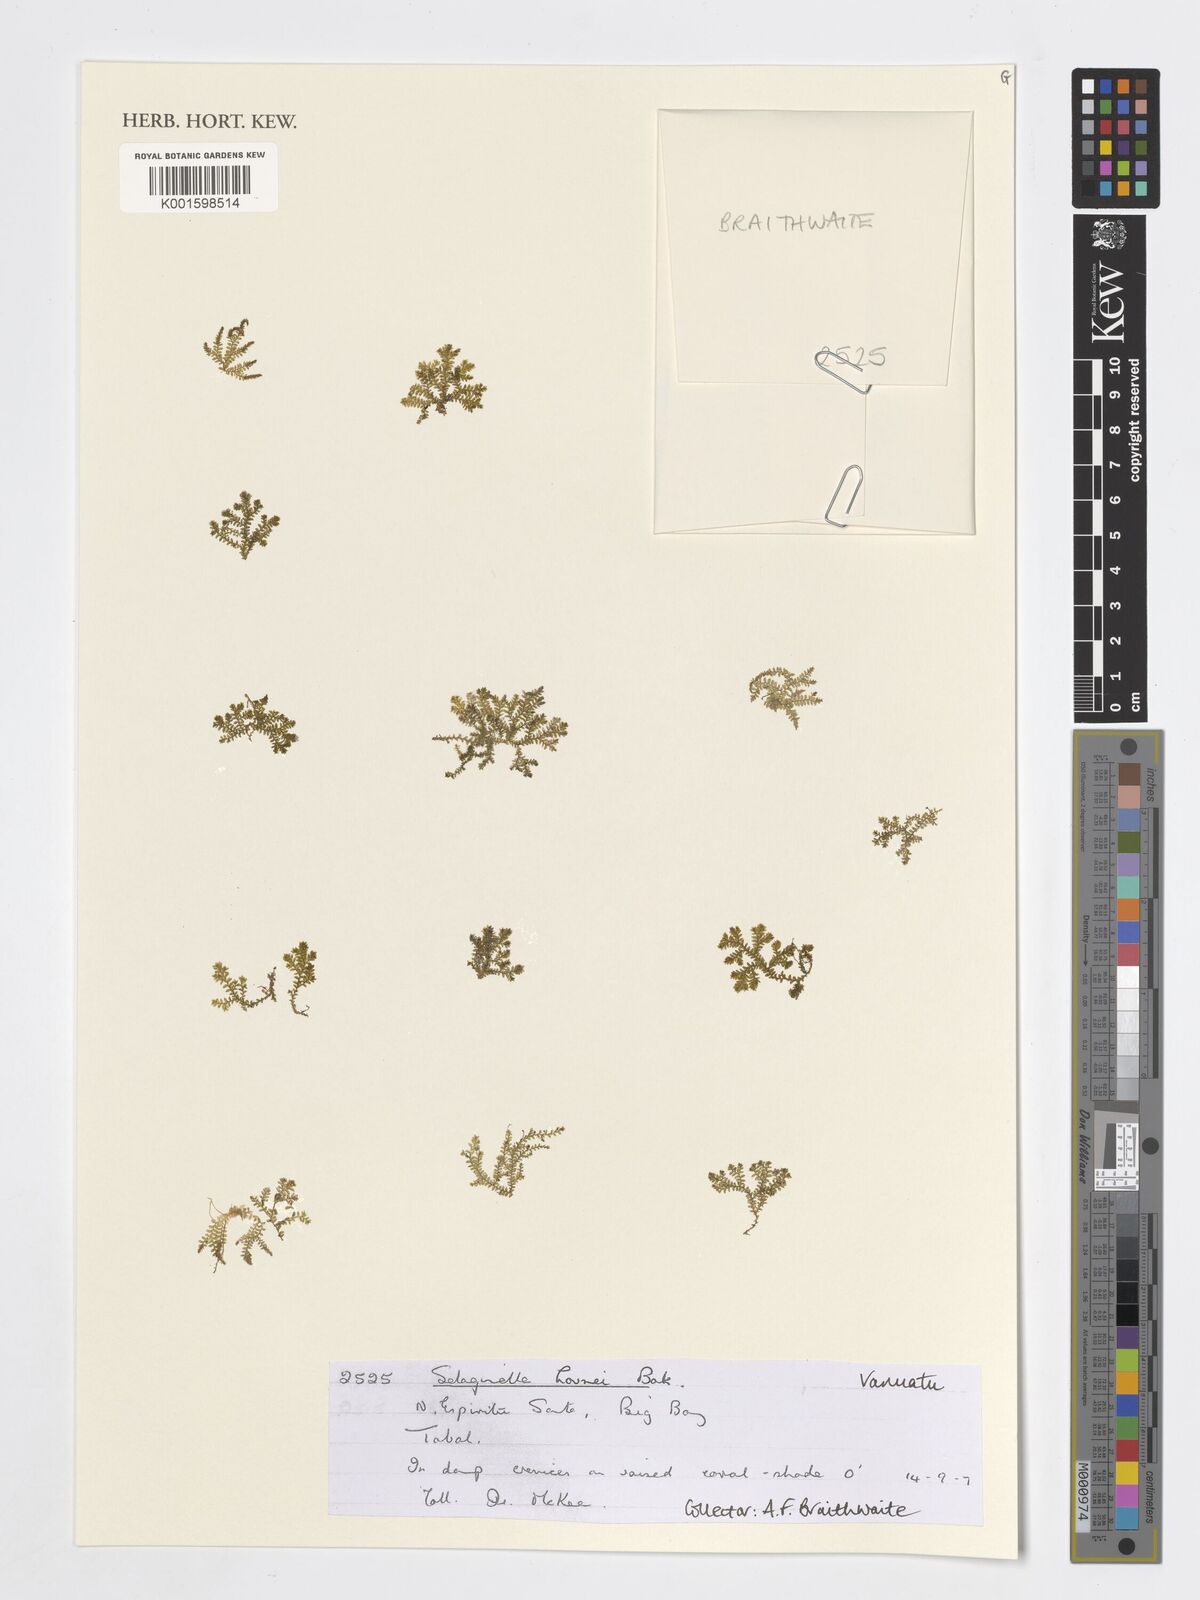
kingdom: Plantae
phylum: Tracheophyta
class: Lycopodiopsida
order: Selaginellales
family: Selaginellaceae
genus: Selaginella
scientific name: Selaginella
